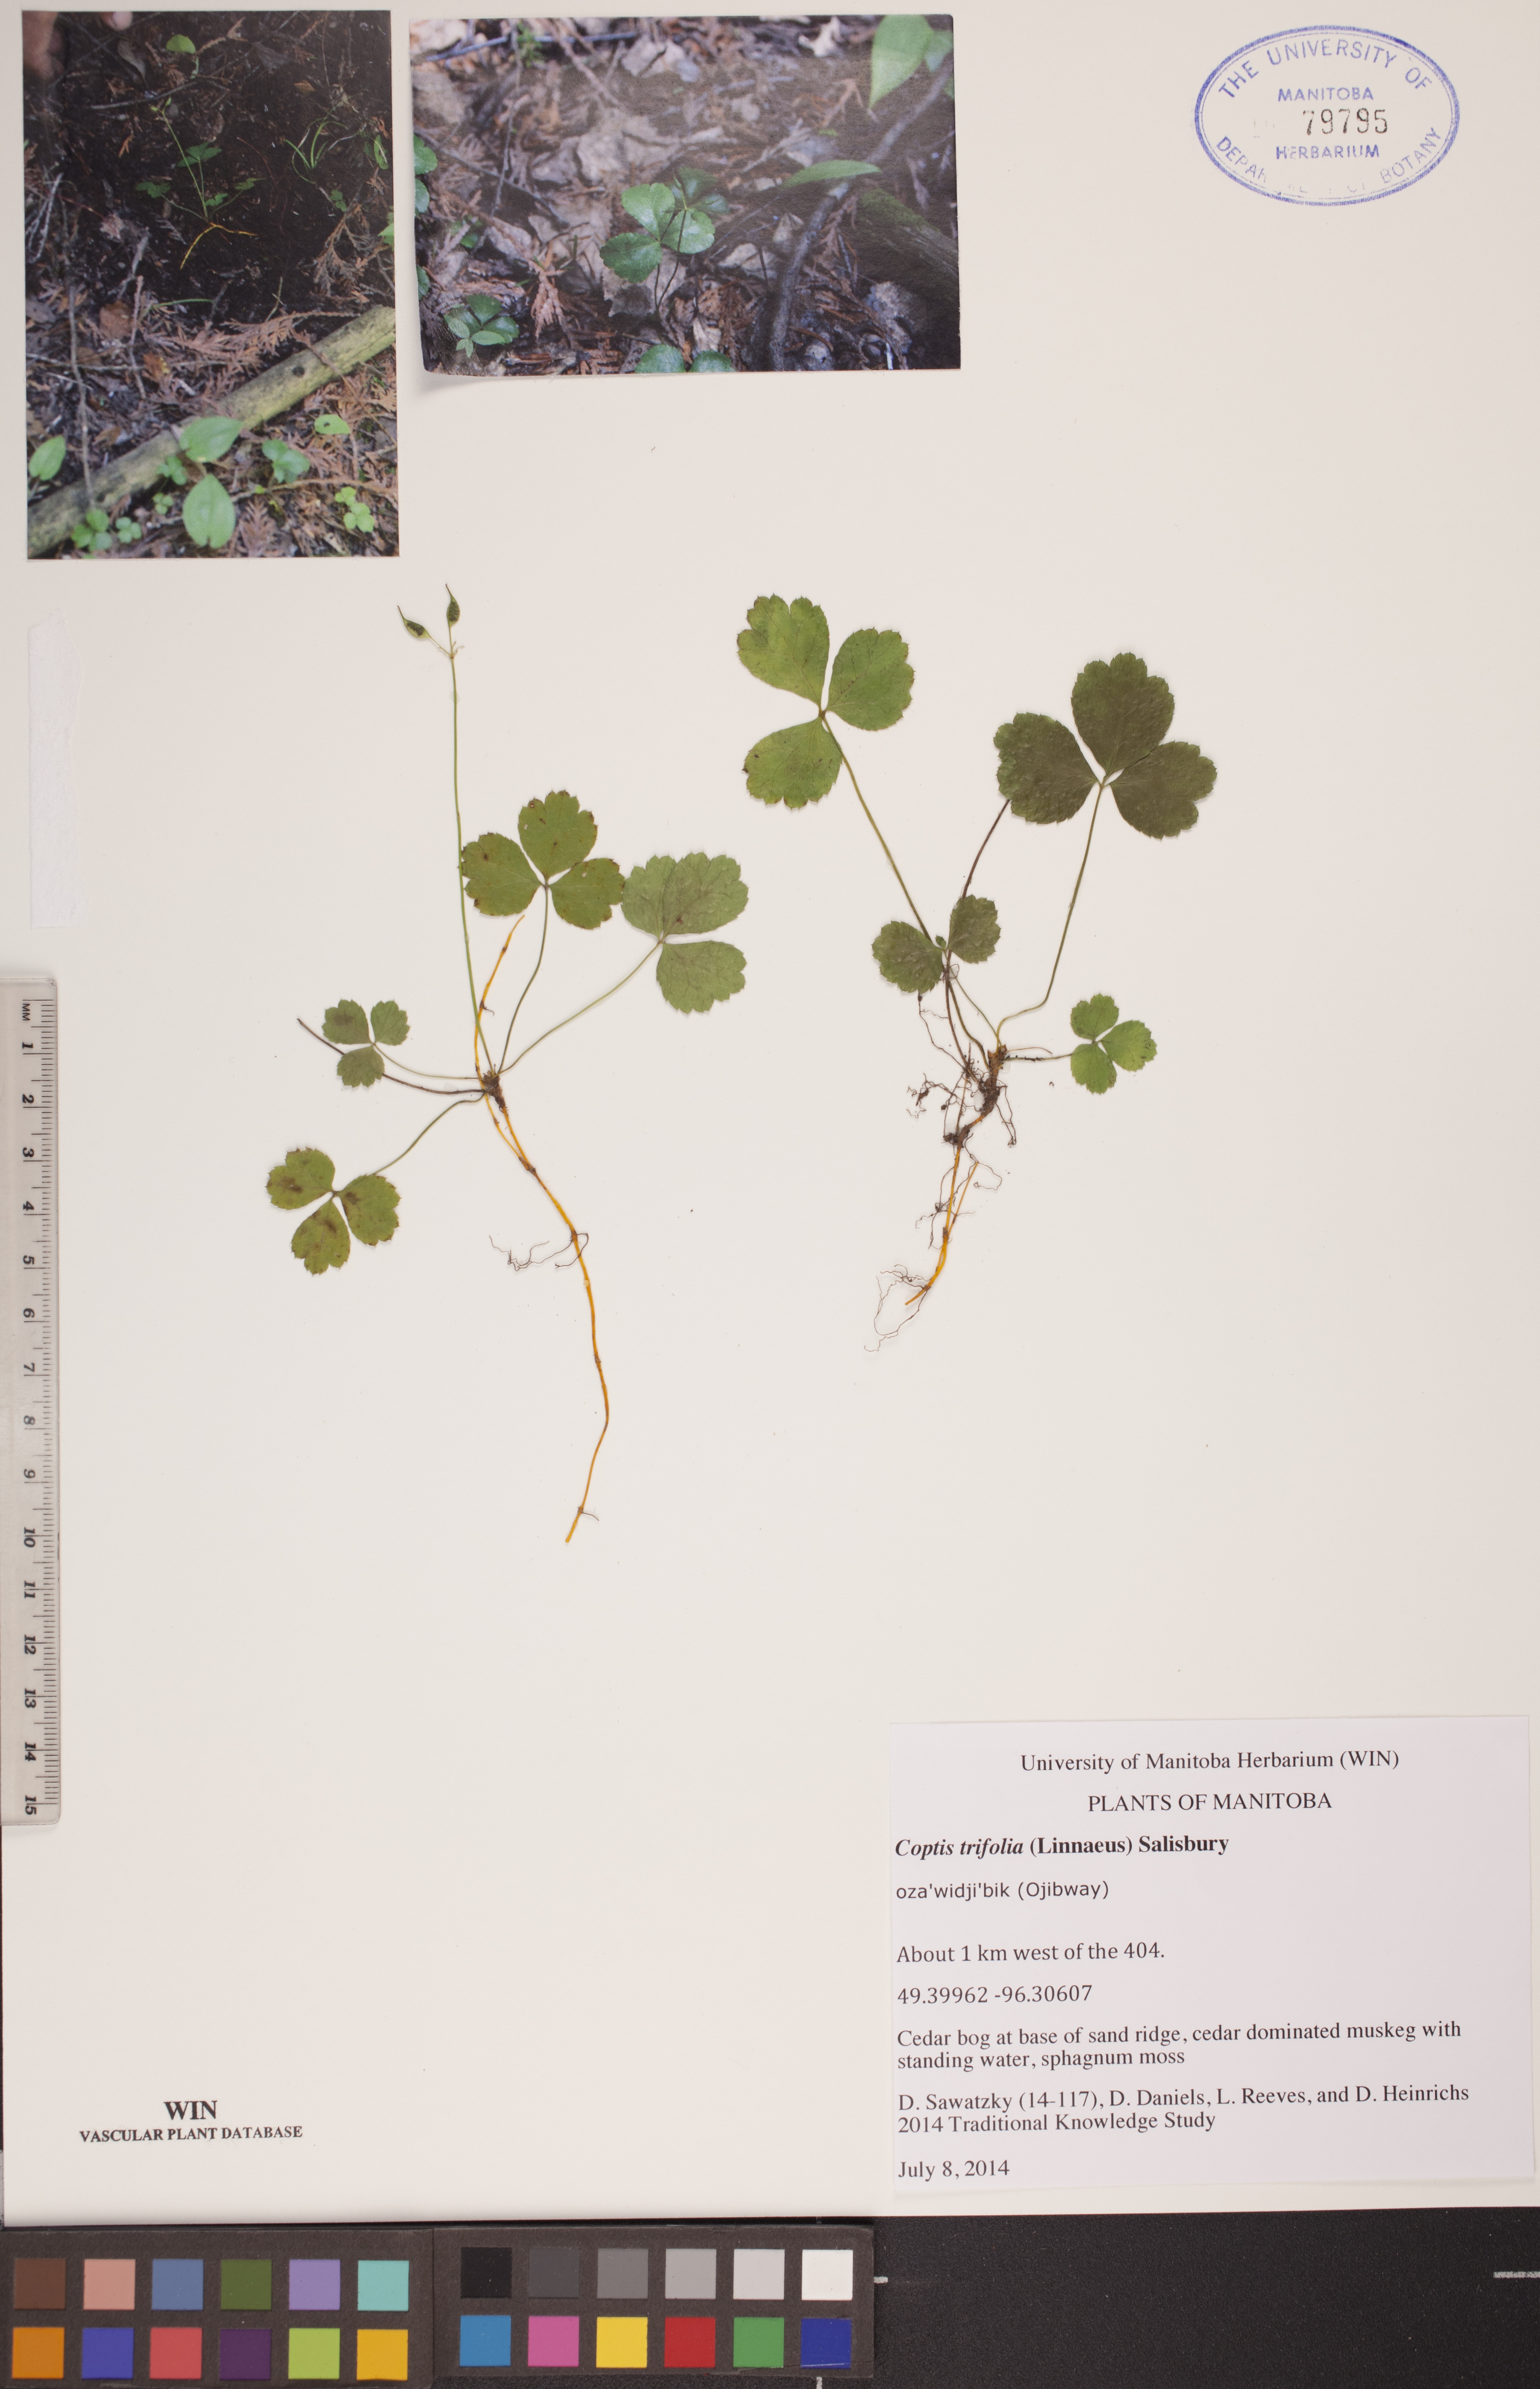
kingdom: Plantae
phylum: Tracheophyta
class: Magnoliopsida
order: Ranunculales
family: Ranunculaceae
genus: Coptis
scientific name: Coptis trifolia
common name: Canker-root
